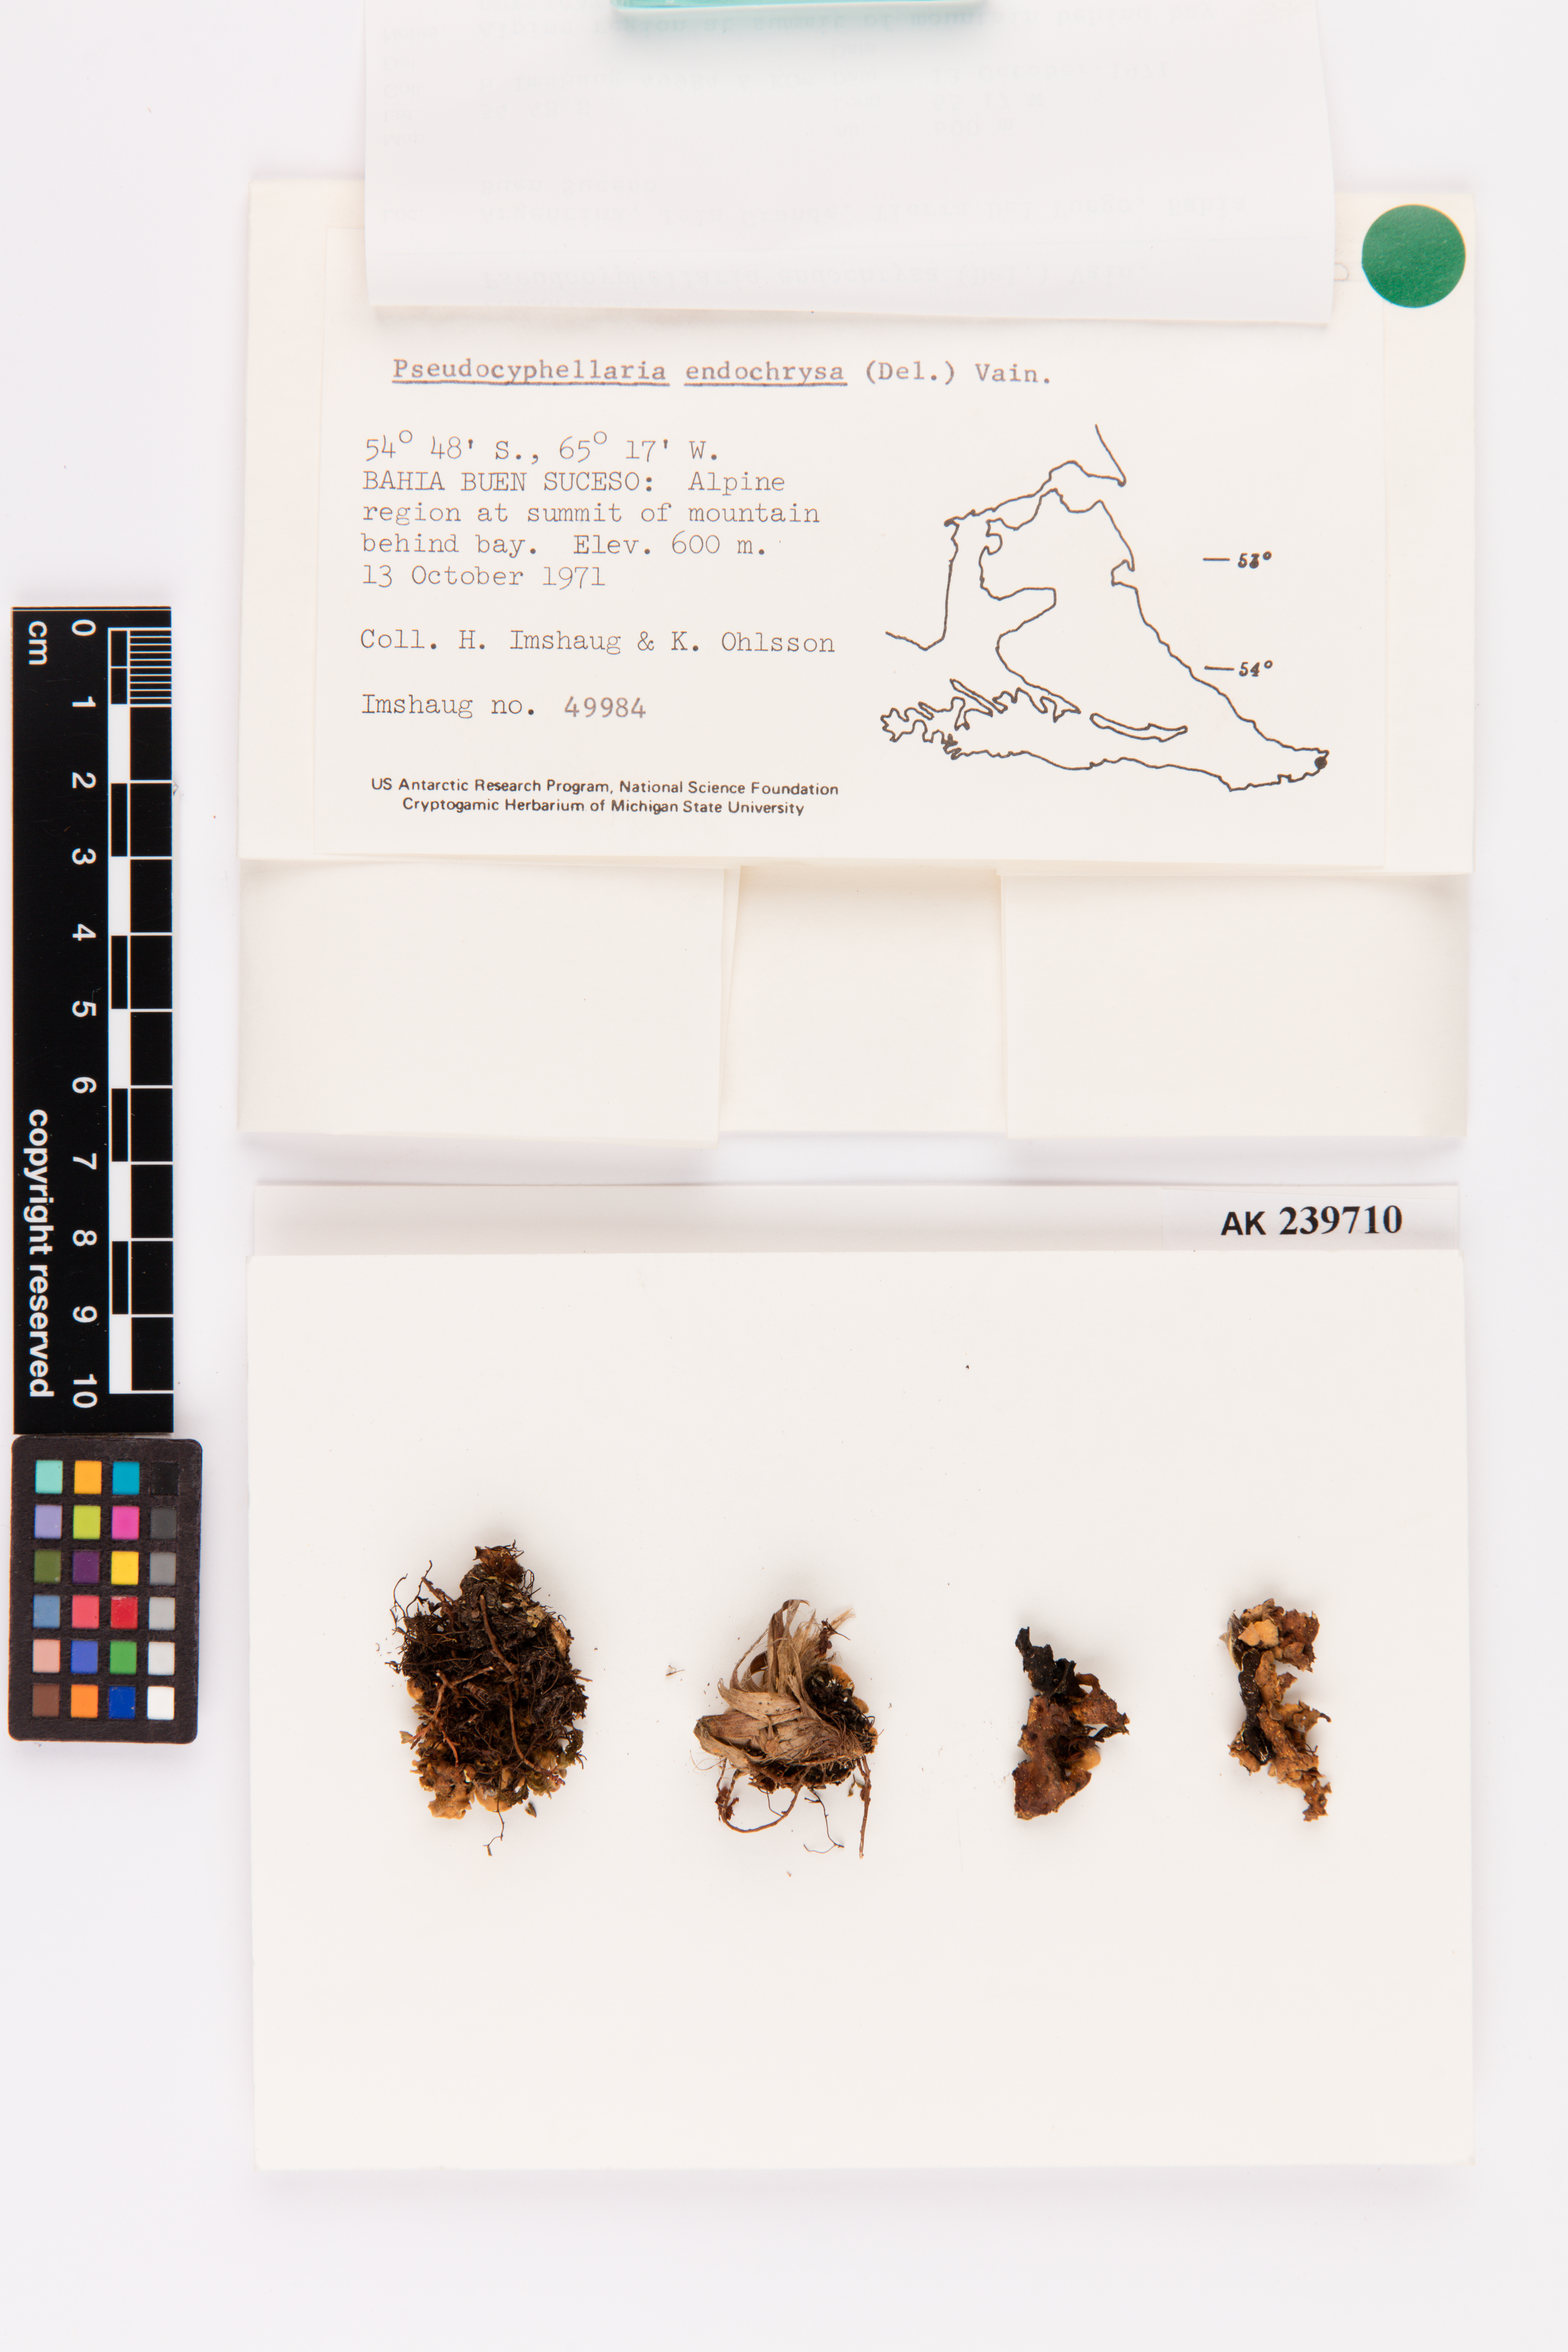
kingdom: Fungi
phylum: Ascomycota
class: Lecanoromycetes
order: Peltigerales
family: Lobariaceae
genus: Podostictina
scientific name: Podostictina endochrysa
